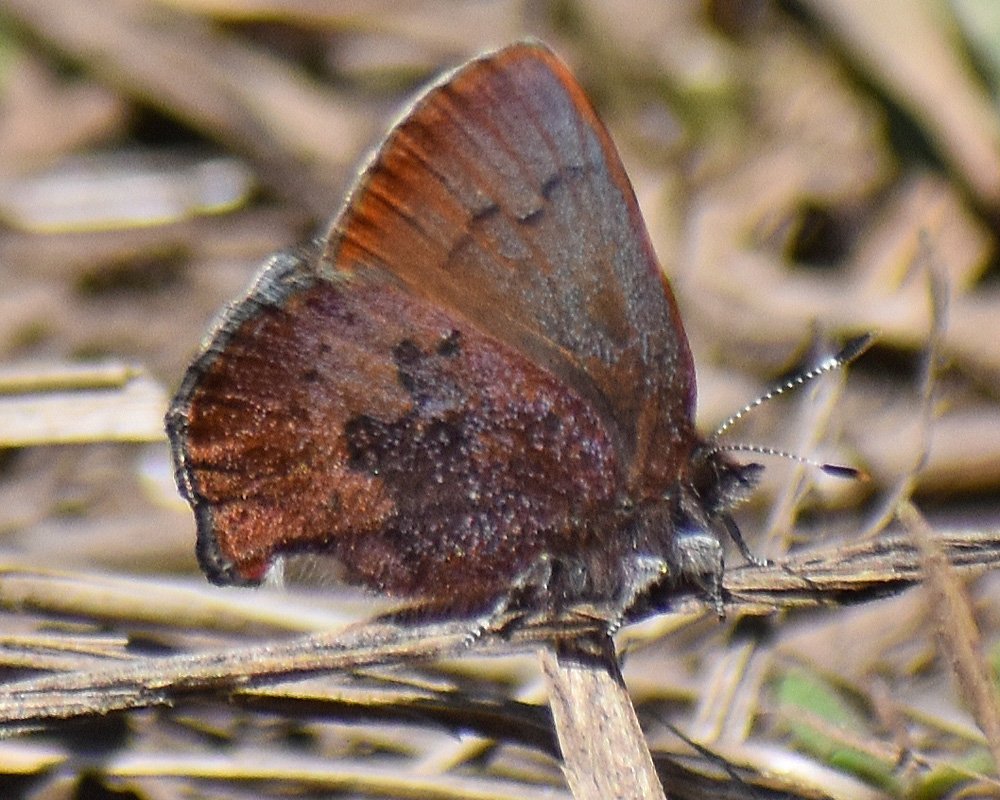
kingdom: Animalia
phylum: Arthropoda
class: Insecta
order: Lepidoptera
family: Lycaenidae
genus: Incisalia
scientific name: Incisalia irioides
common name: Brown Elfin
